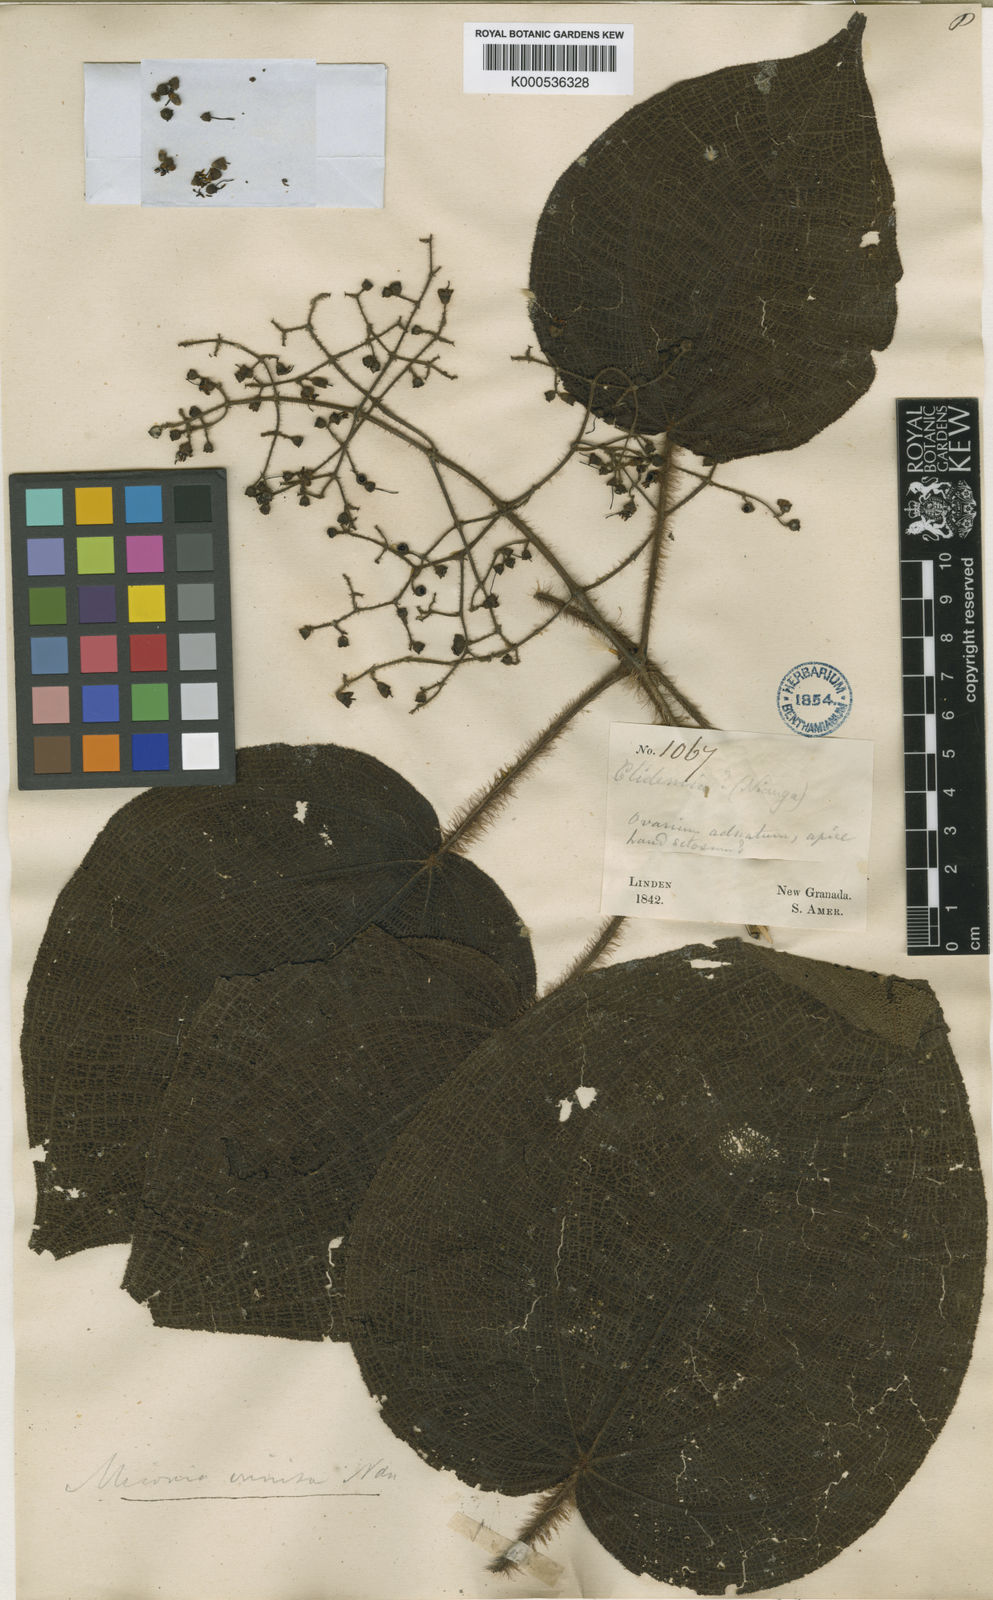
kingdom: Plantae
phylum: Tracheophyta
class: Magnoliopsida
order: Myrtales
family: Melastomataceae
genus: Miconia
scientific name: Miconia crinita
